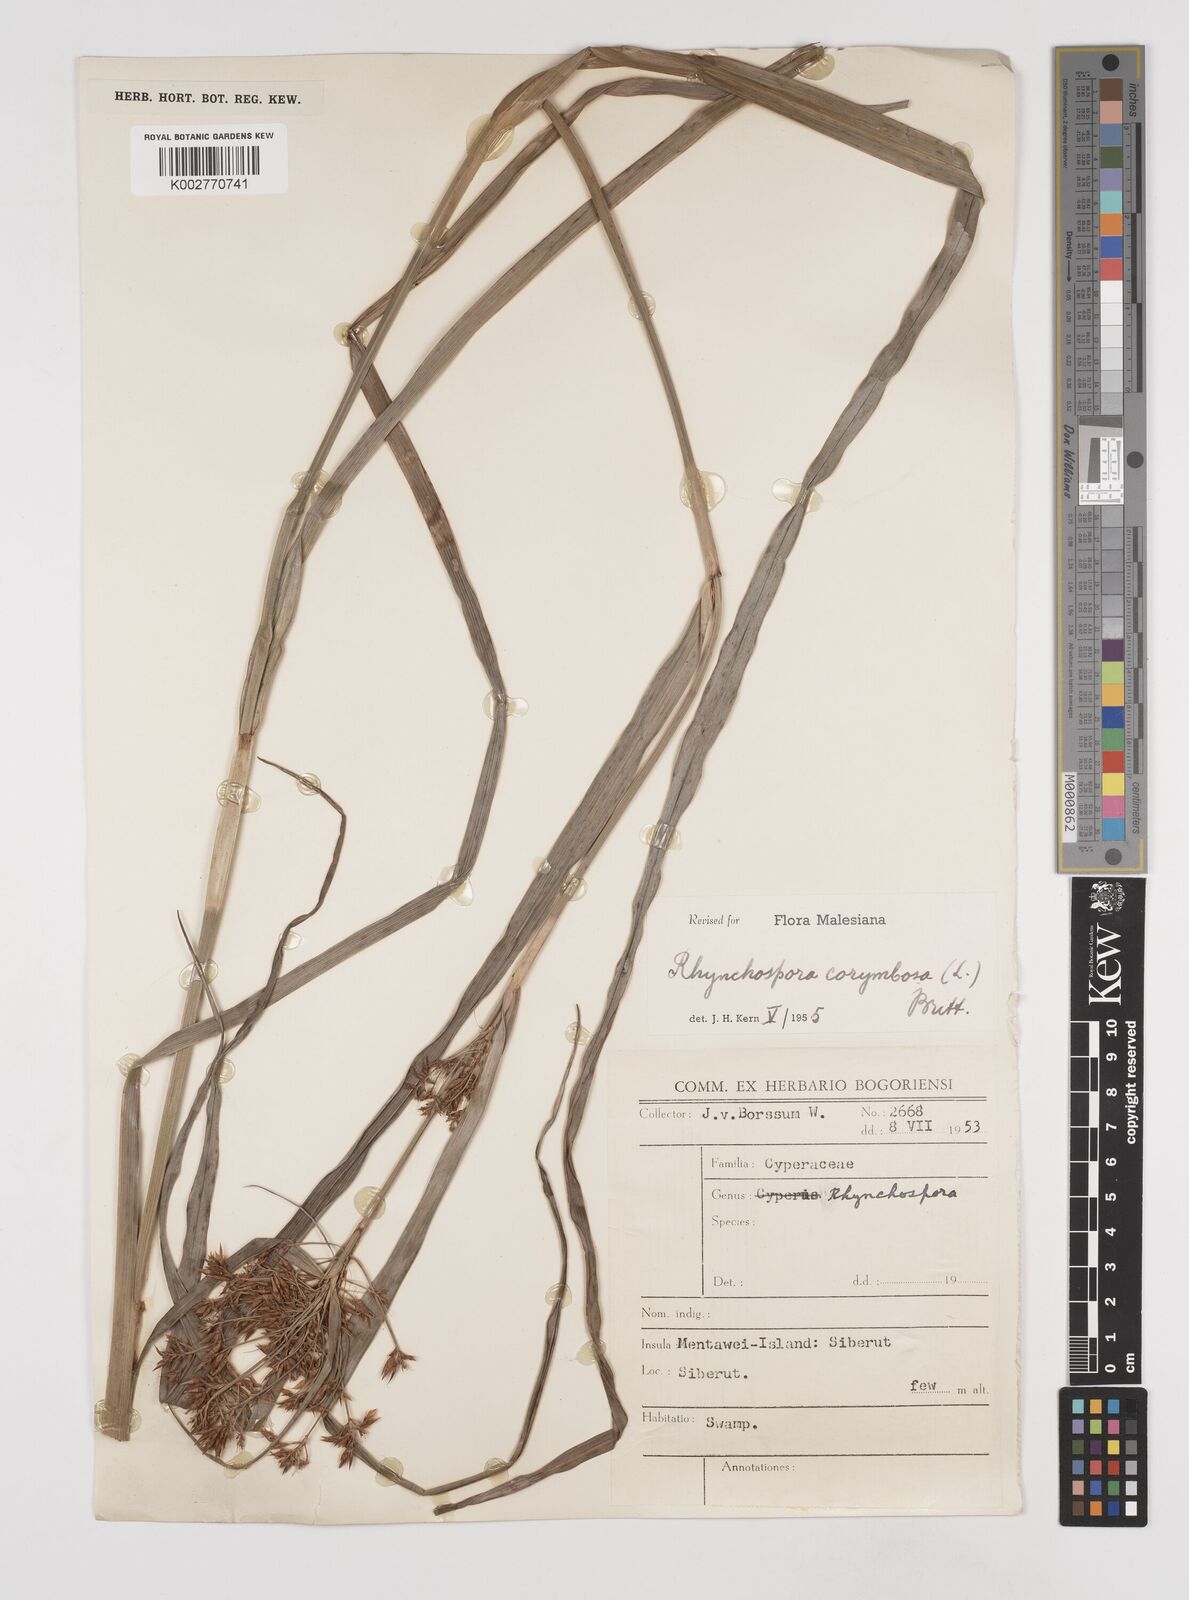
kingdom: Plantae
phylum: Tracheophyta
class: Liliopsida
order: Poales
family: Cyperaceae
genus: Rhynchospora
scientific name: Rhynchospora corymbosa
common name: Golden beak sedge
